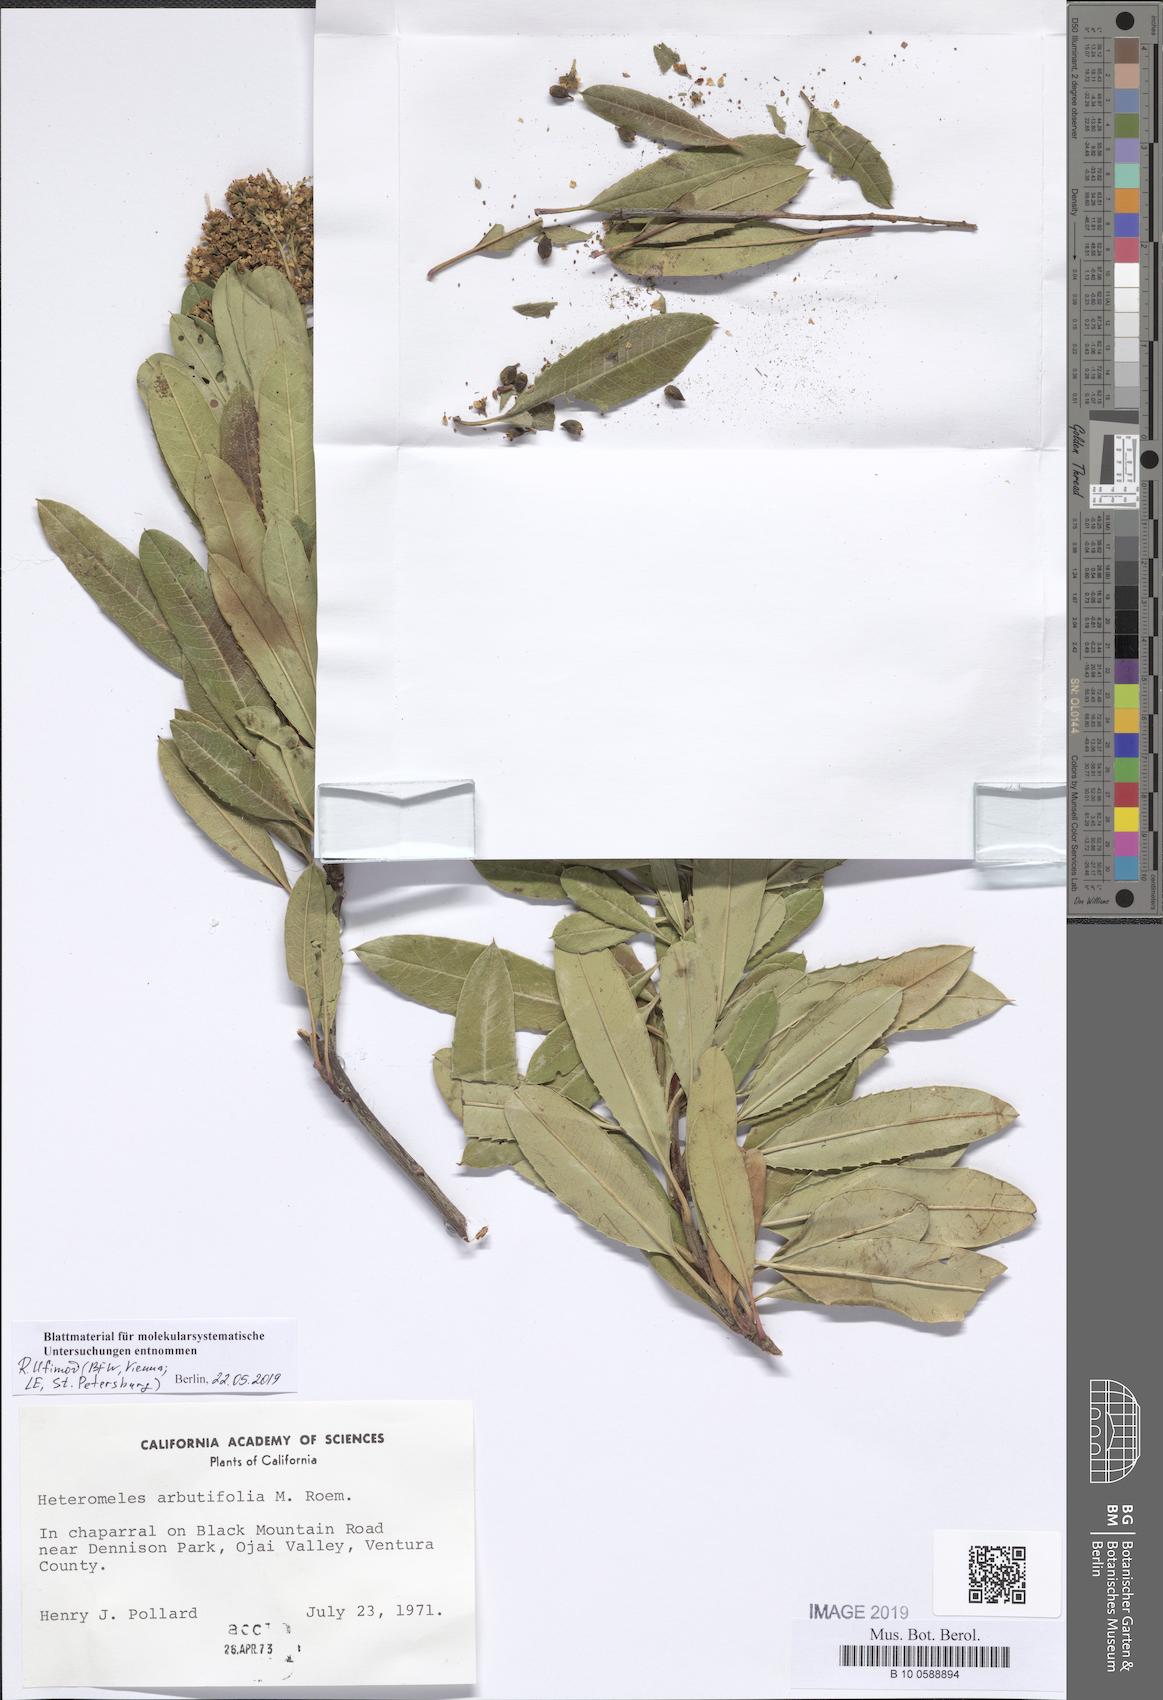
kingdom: Plantae
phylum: Tracheophyta
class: Magnoliopsida
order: Rosales
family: Rosaceae
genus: Heteromeles
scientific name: Heteromeles arbutifolia
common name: California-holly
